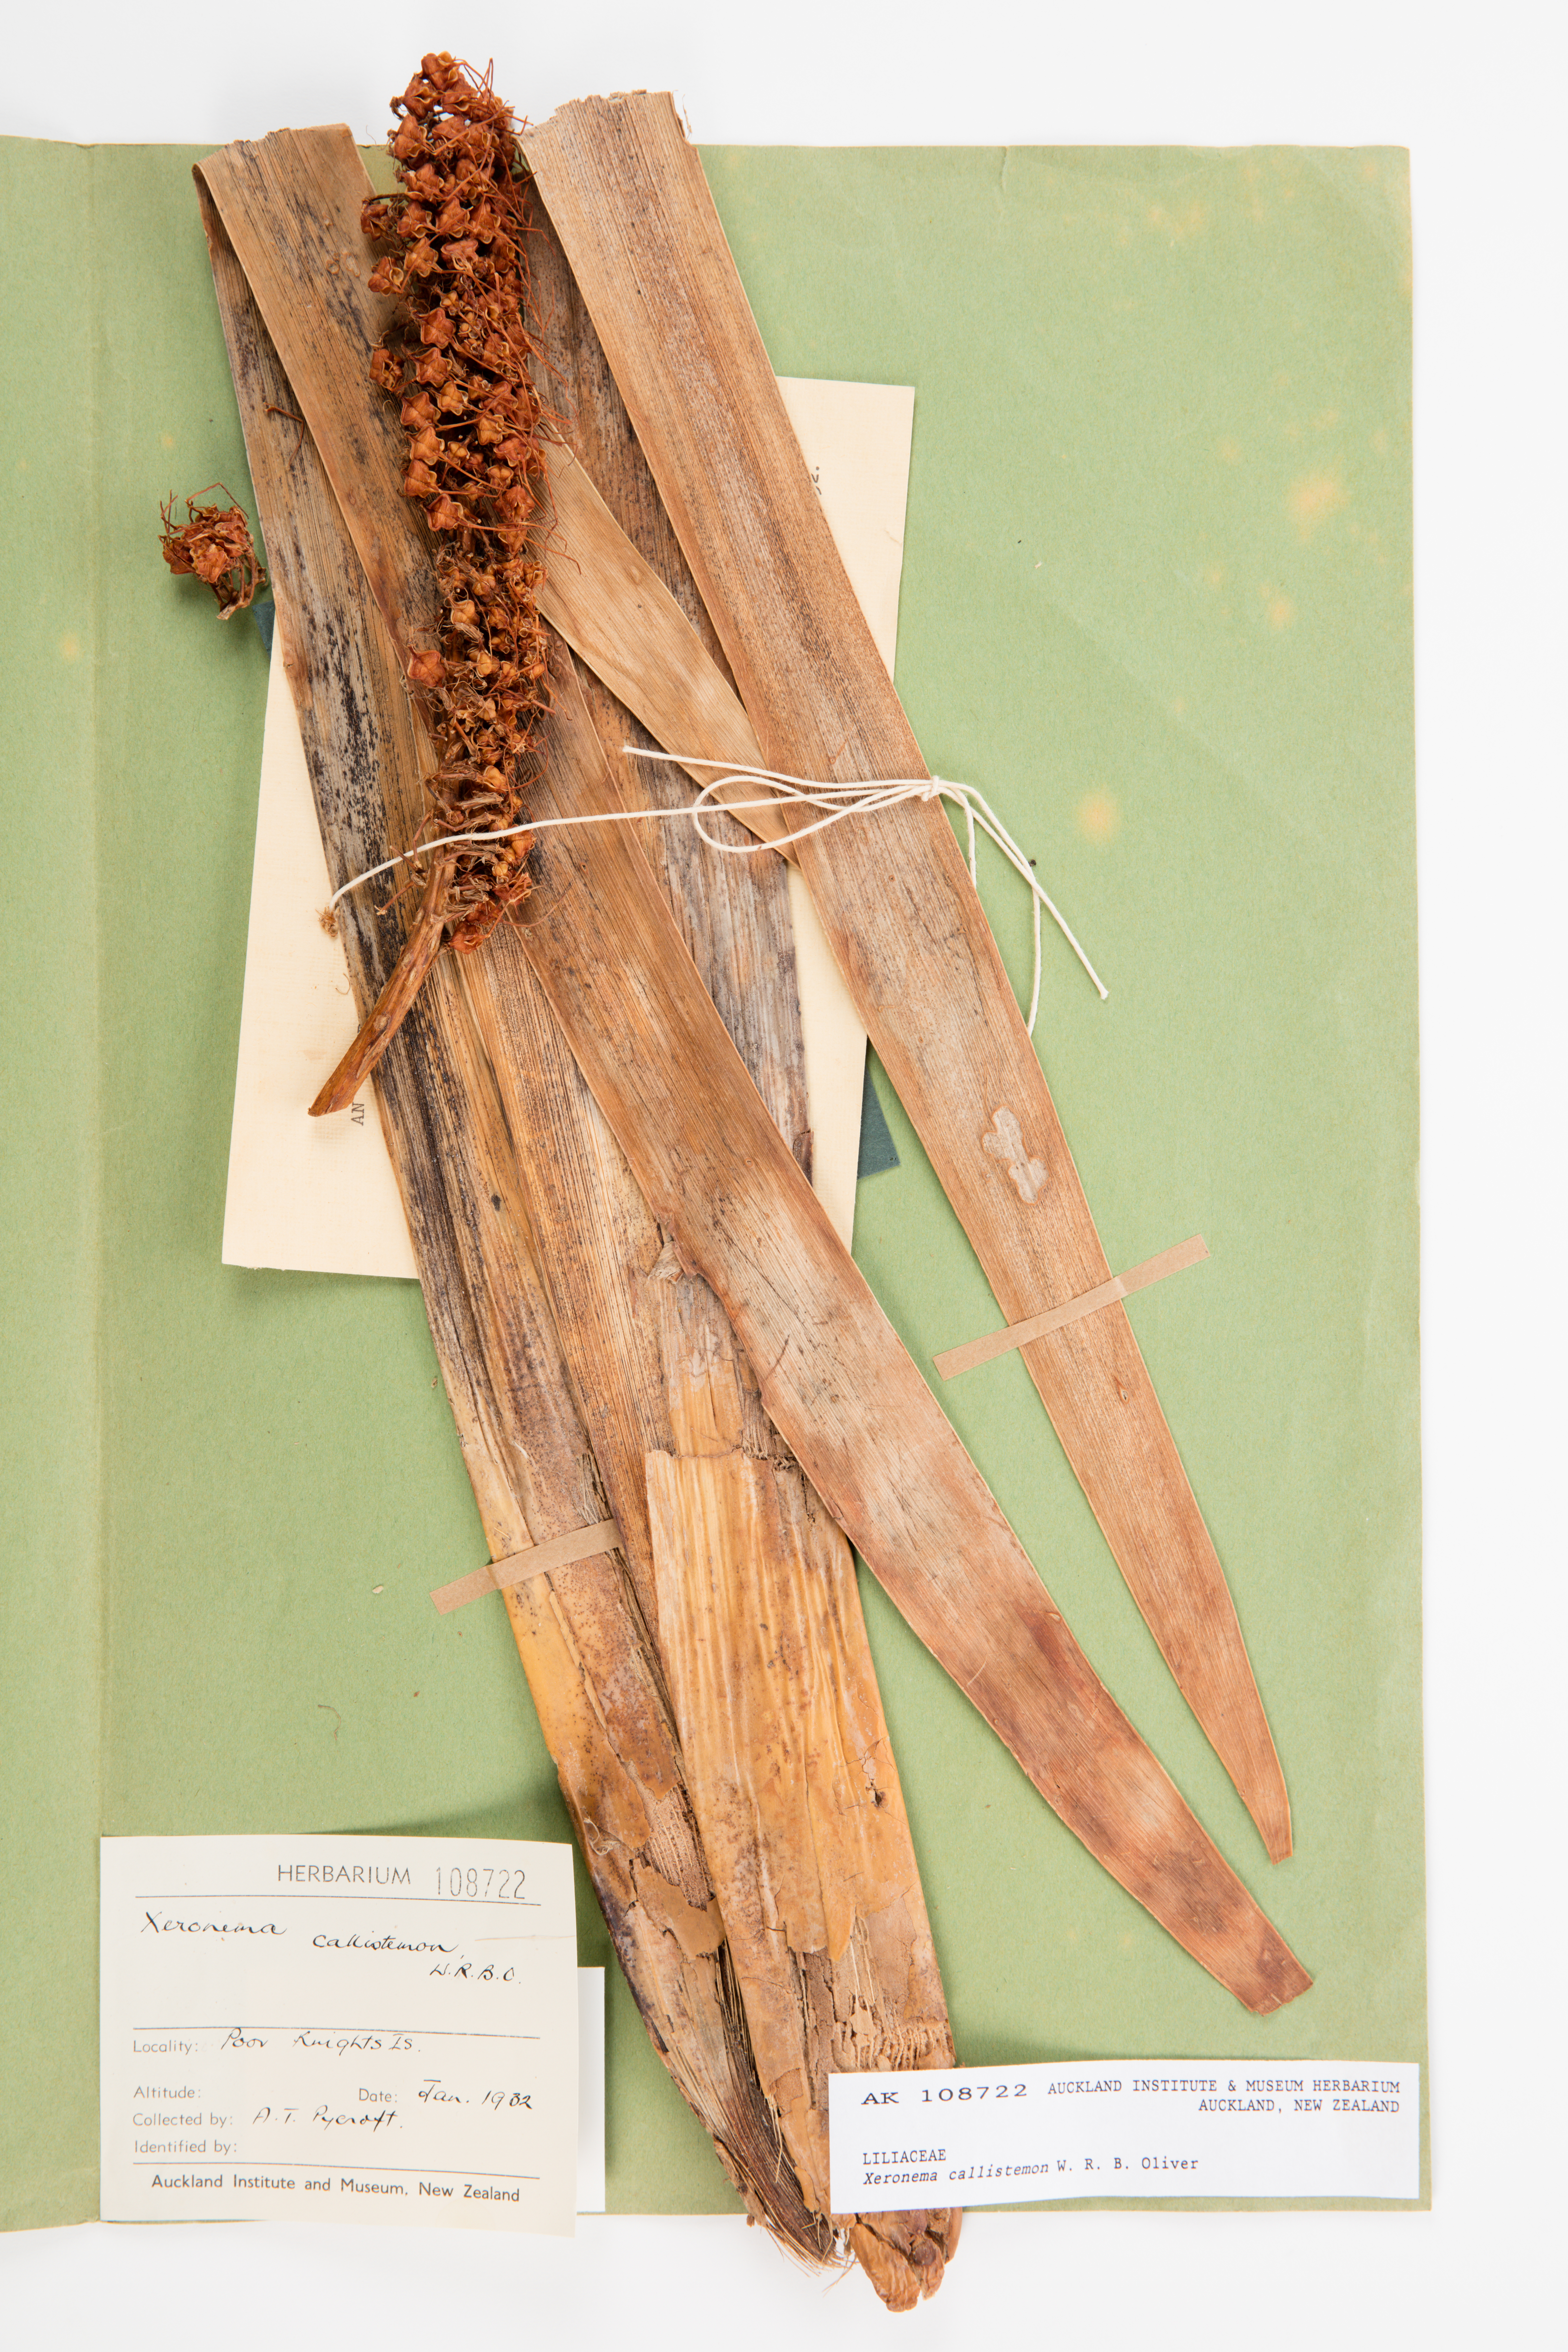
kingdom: Plantae
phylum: Tracheophyta
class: Liliopsida
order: Asparagales
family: Xeronemataceae
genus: Xeronema
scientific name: Xeronema callistemon
